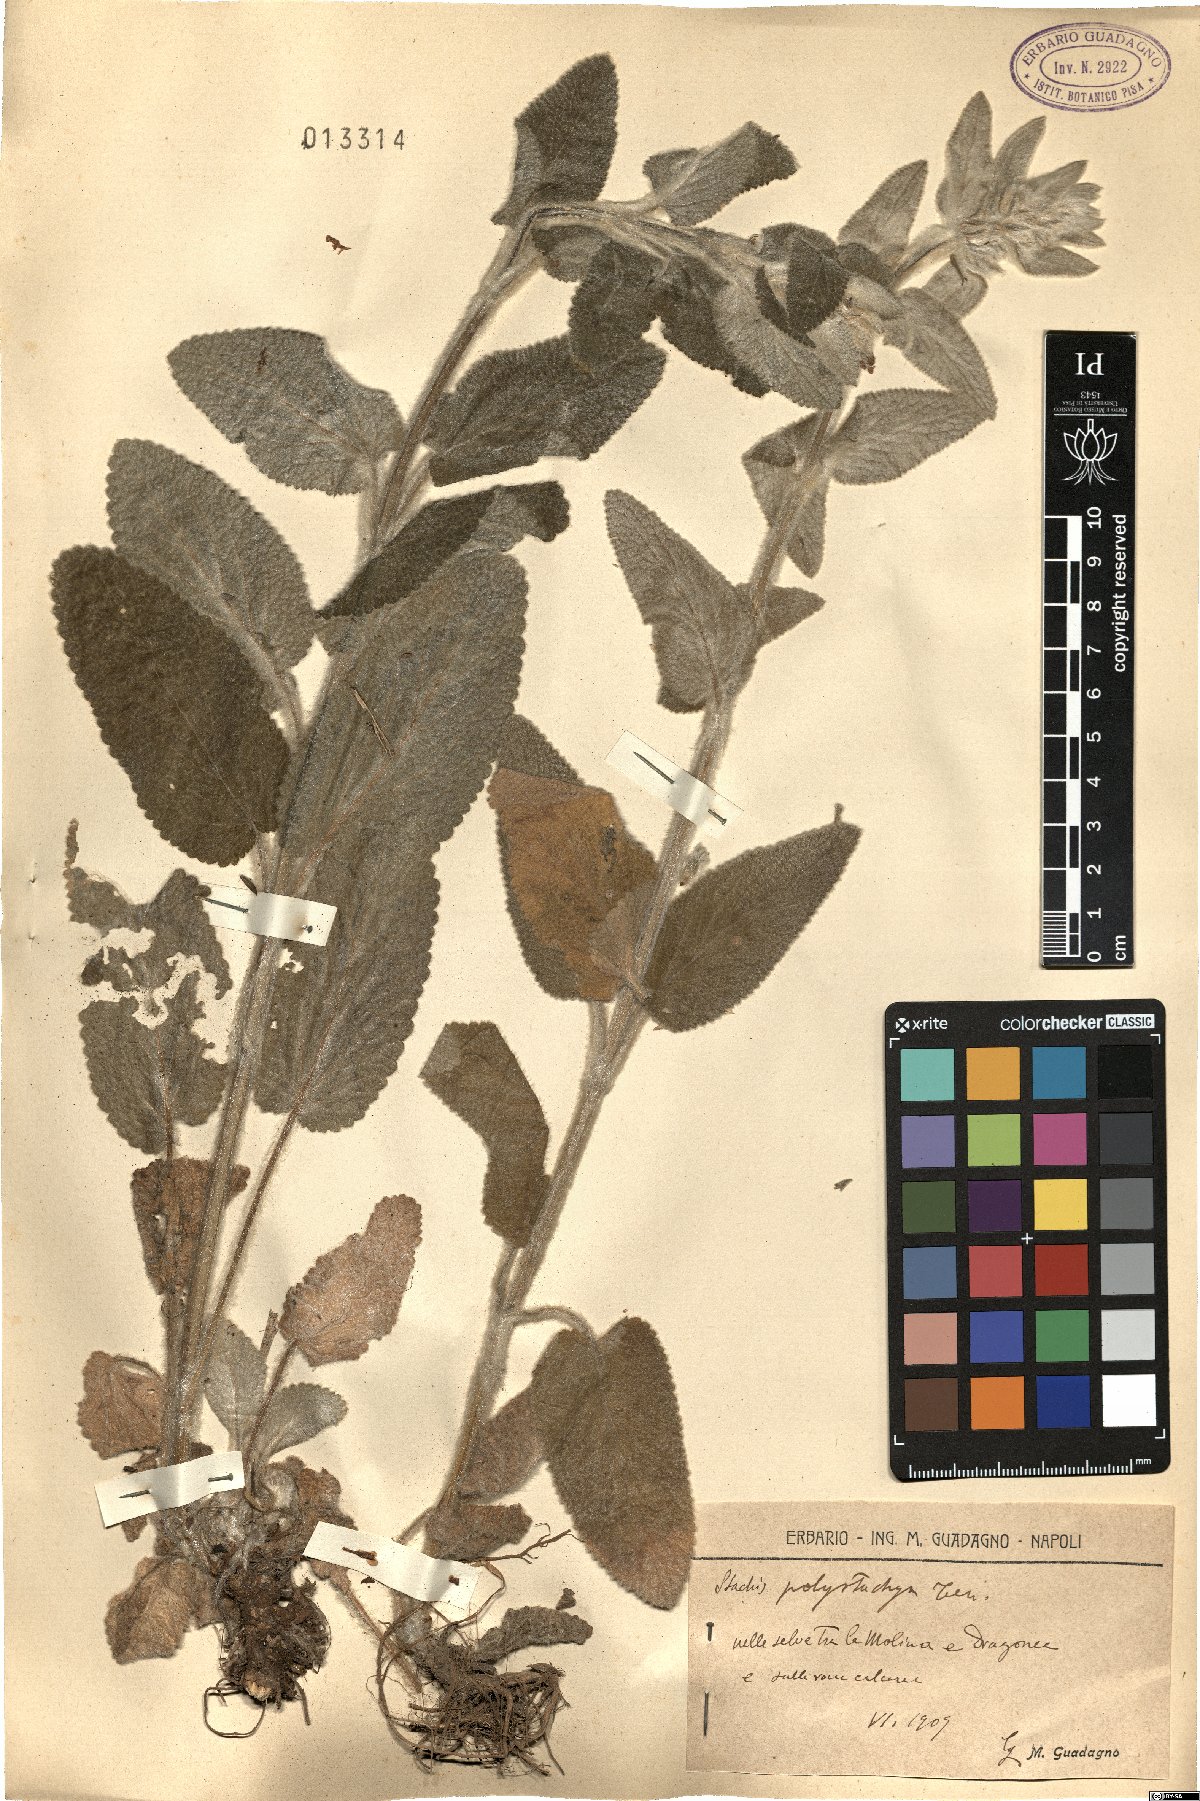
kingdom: Plantae
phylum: Tracheophyta
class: Magnoliopsida
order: Lamiales
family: Lamiaceae
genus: Stachys
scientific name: Stachys germanica
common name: Downy woundwort
